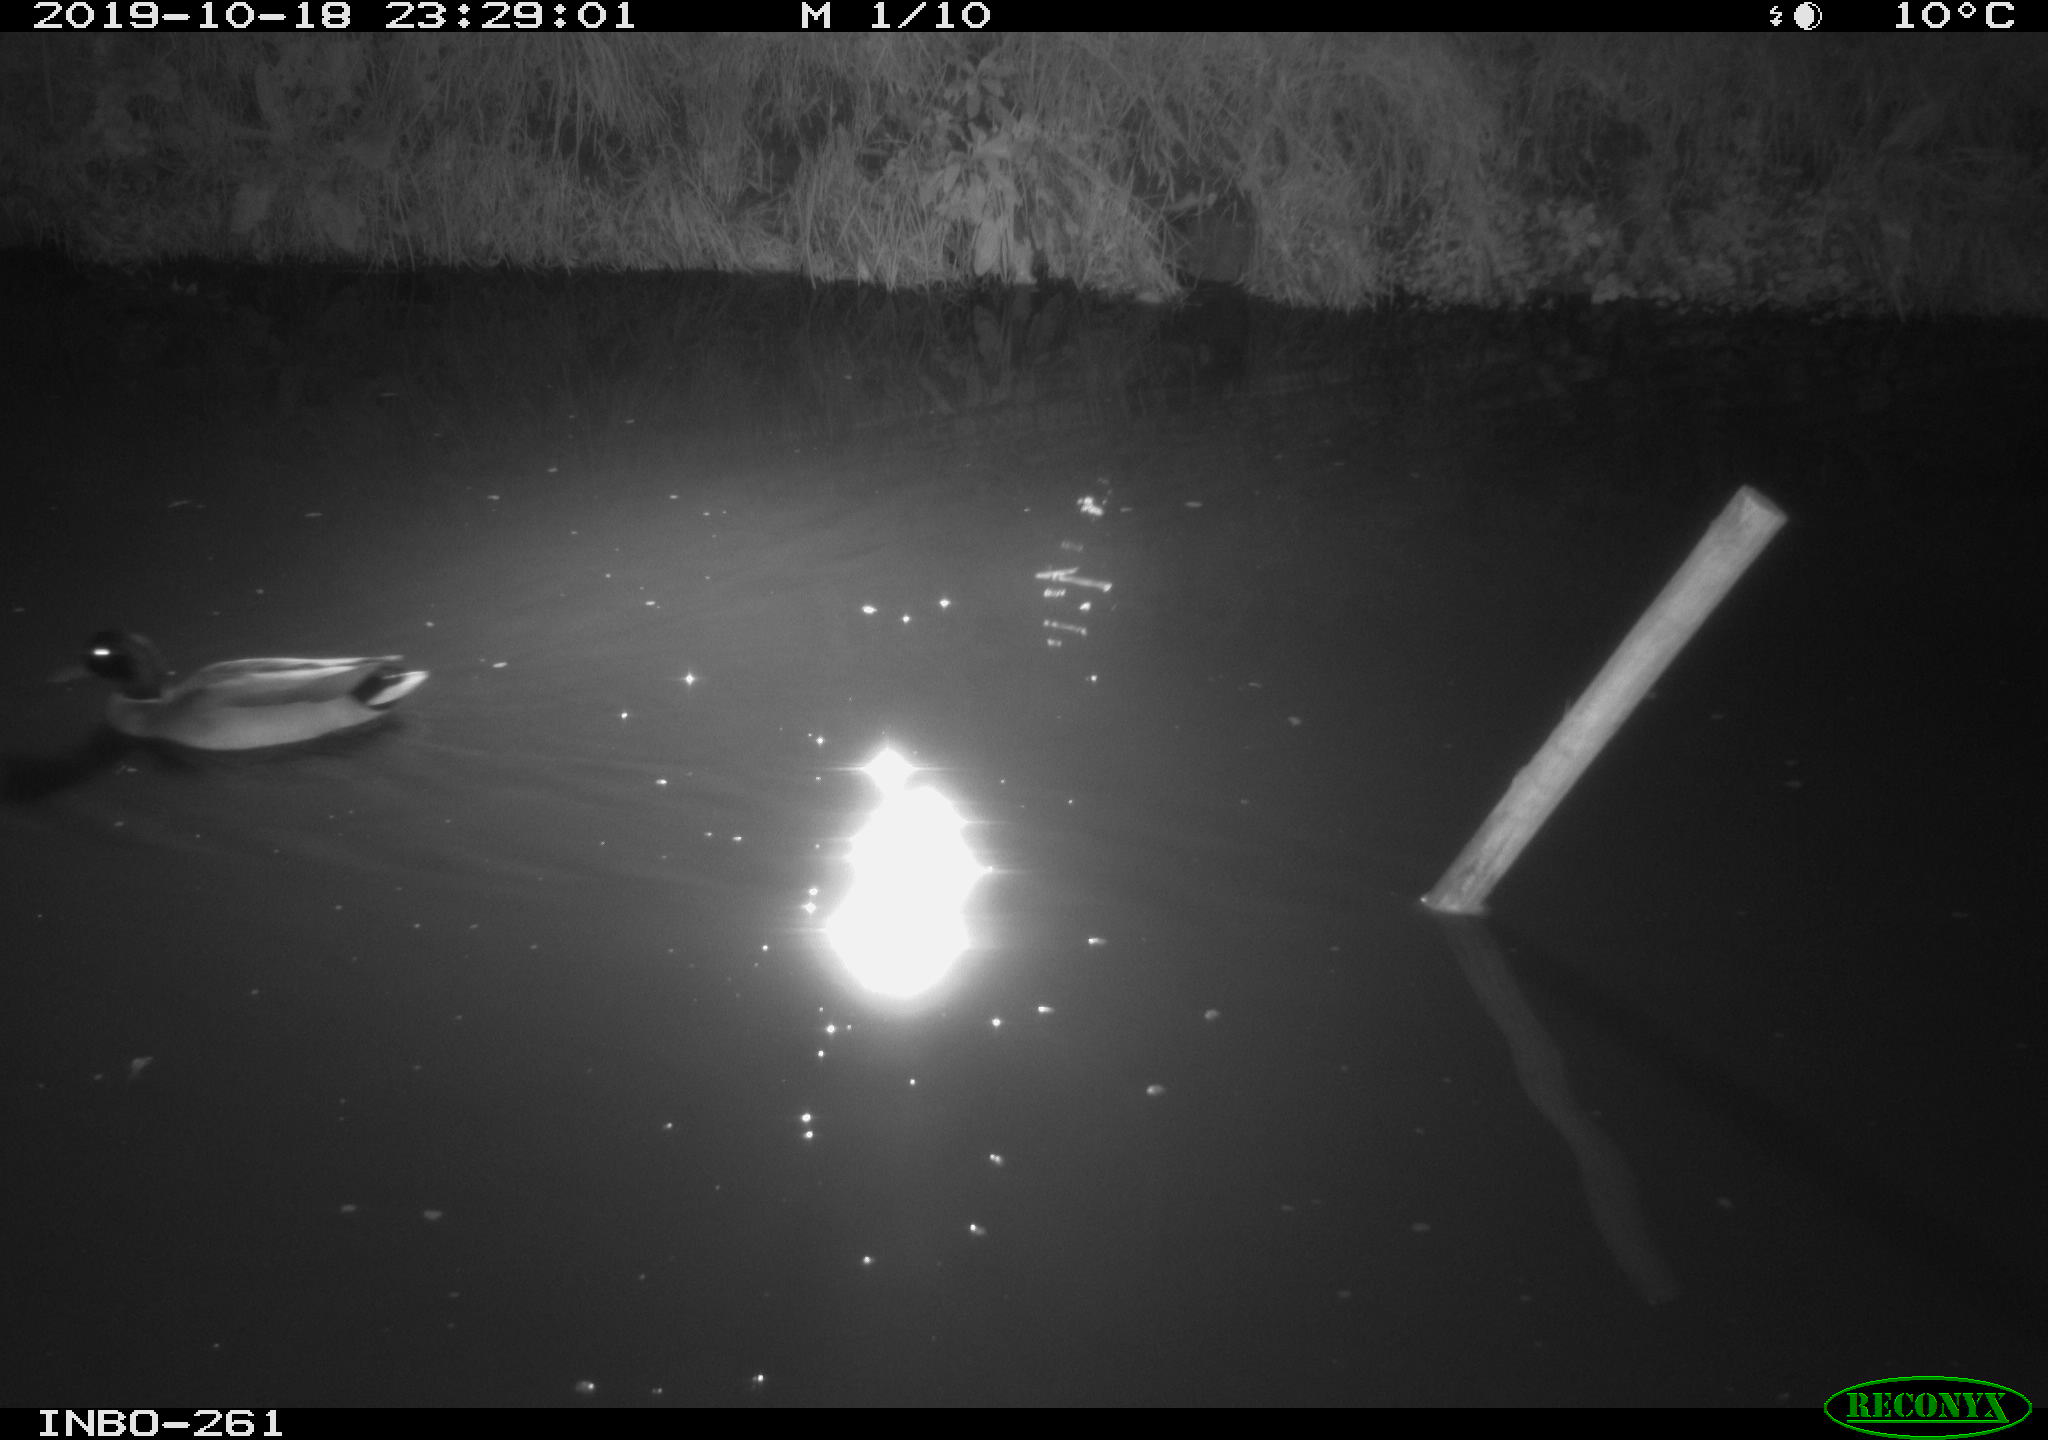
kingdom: Animalia
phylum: Chordata
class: Aves
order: Anseriformes
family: Anatidae
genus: Anas
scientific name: Anas platyrhynchos
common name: Mallard
